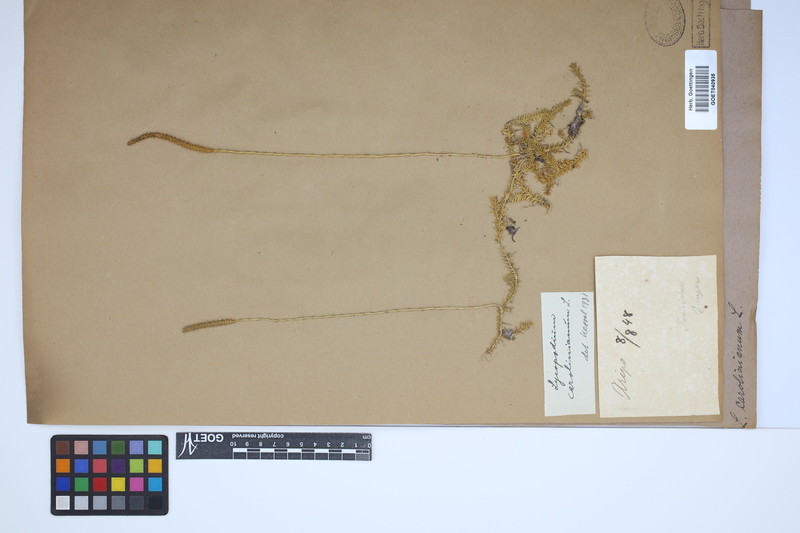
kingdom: Plantae
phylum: Tracheophyta
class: Lycopodiopsida
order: Lycopodiales
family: Lycopodiaceae
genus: Brownseya
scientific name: Brownseya serpentina
